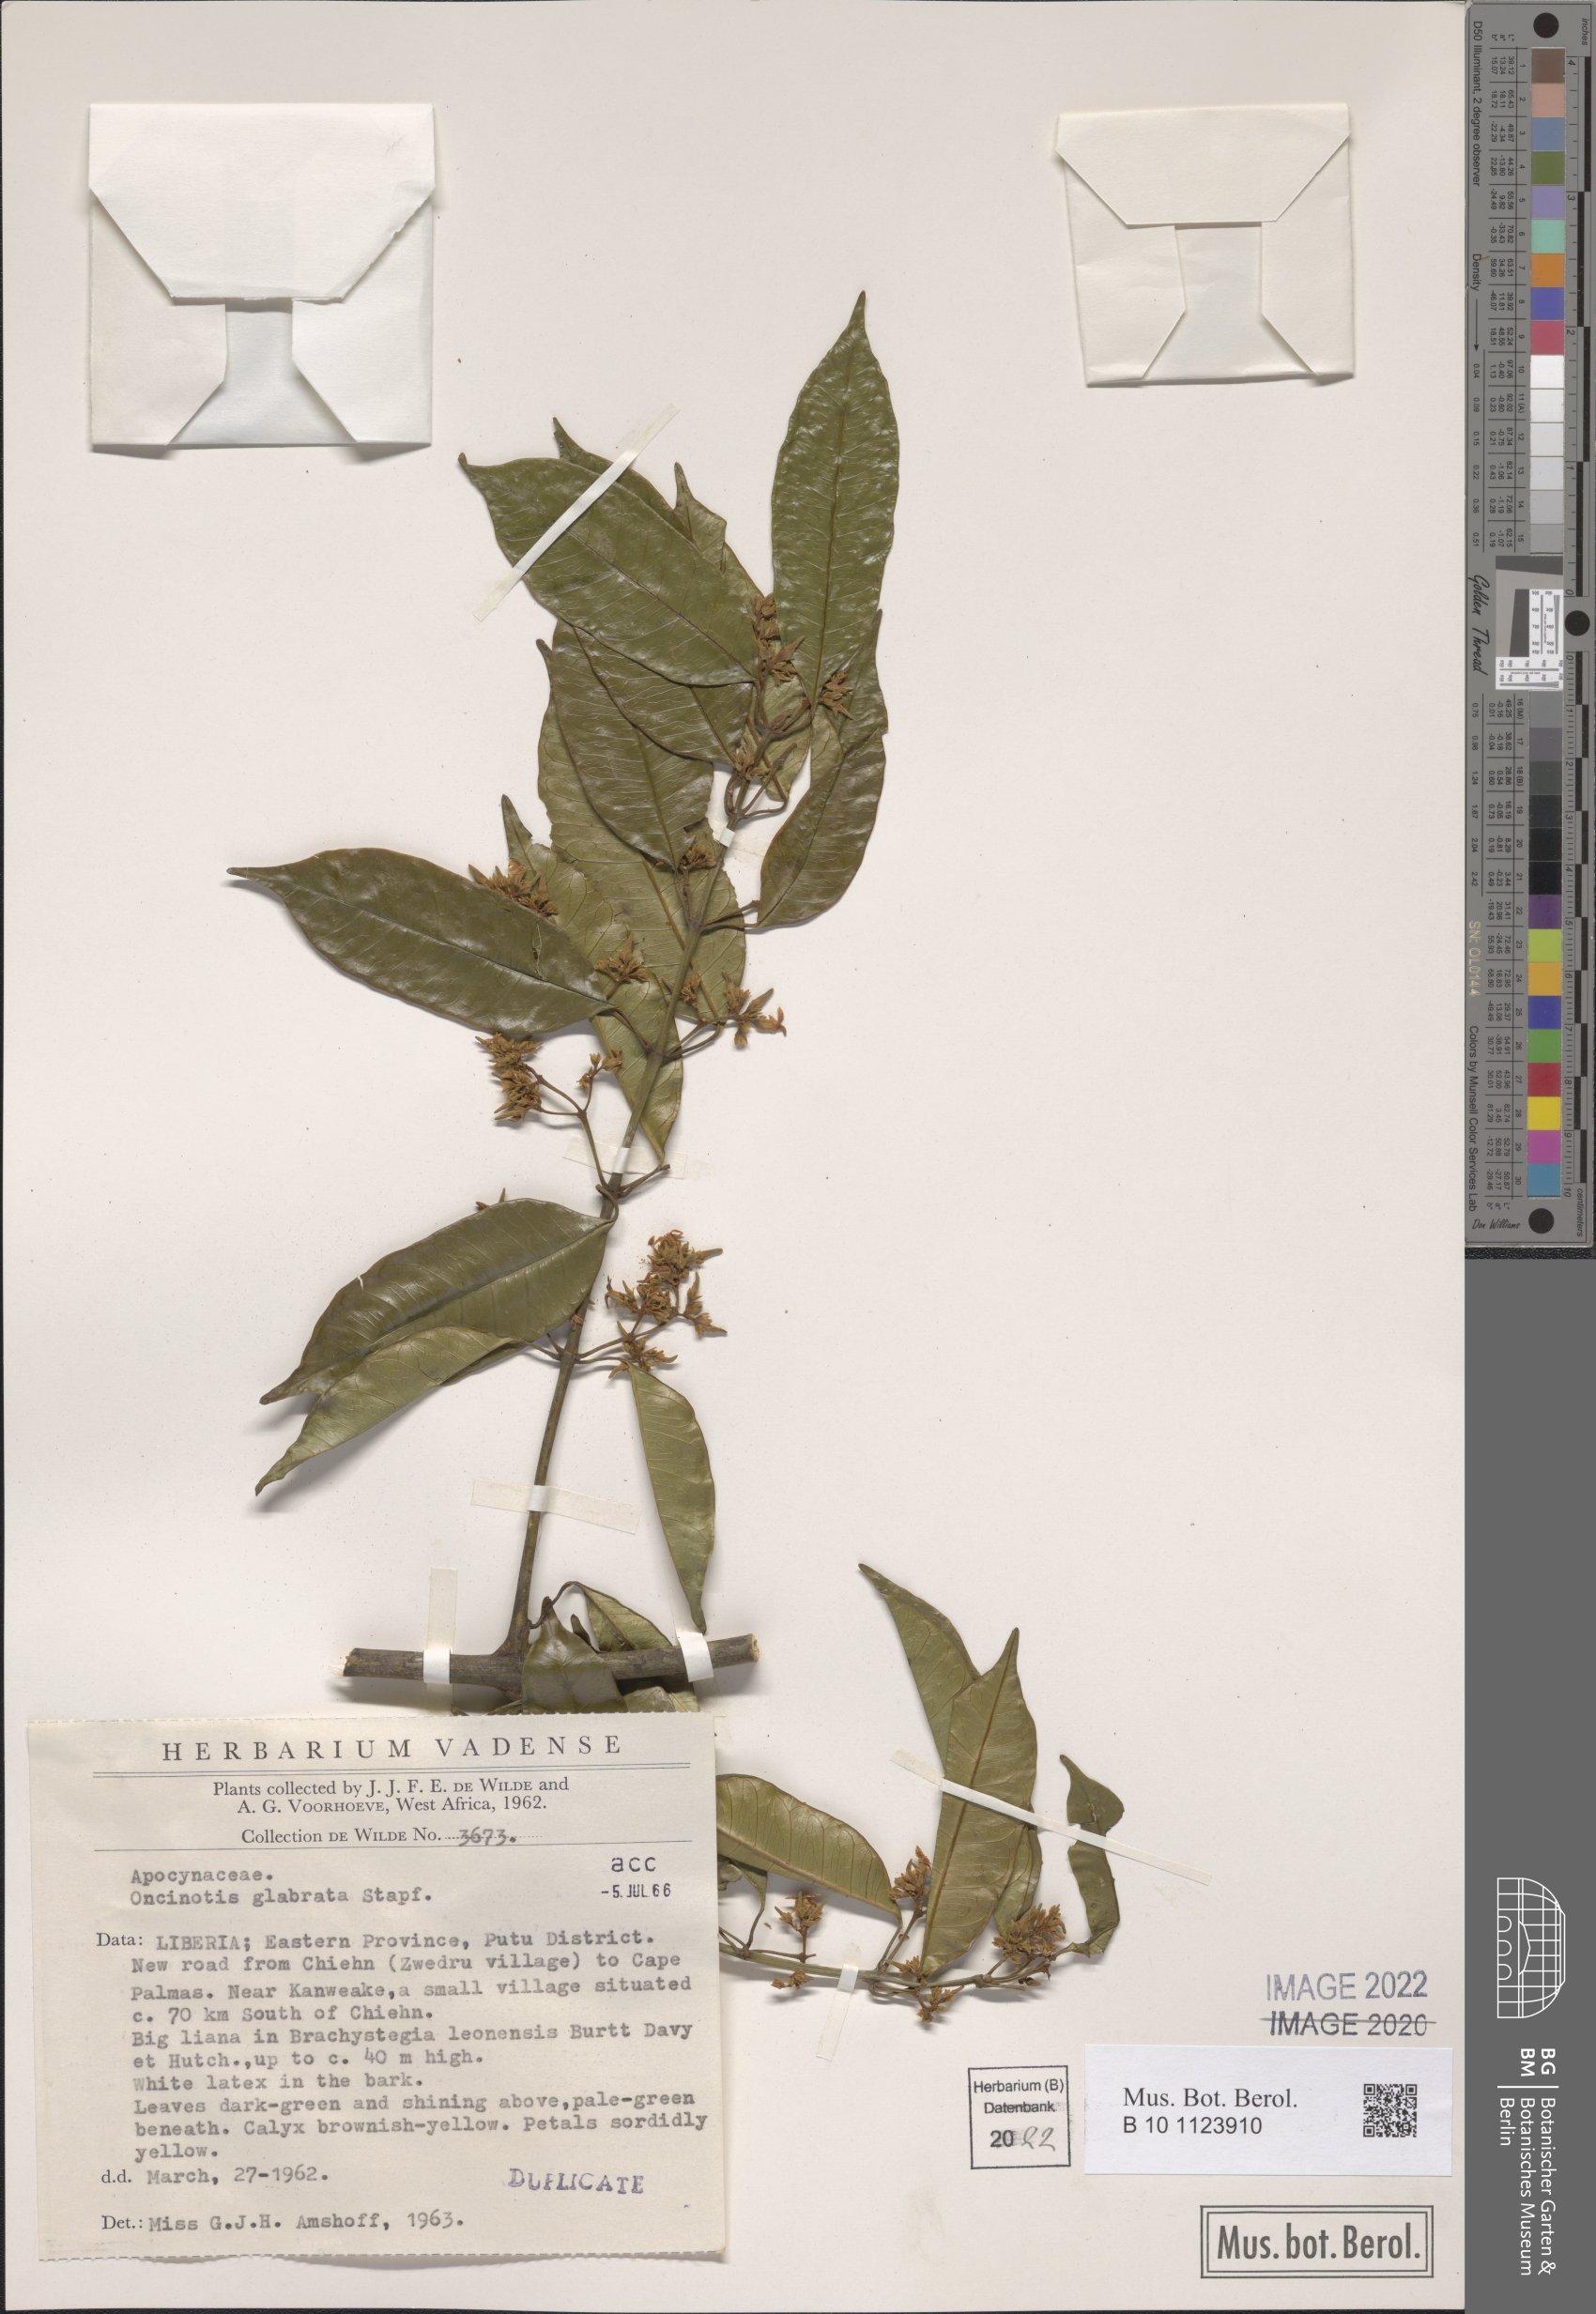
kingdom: Plantae
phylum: Tracheophyta
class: Magnoliopsida
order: Gentianales
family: Apocynaceae
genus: Oncinotis
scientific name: Oncinotis glabrata
